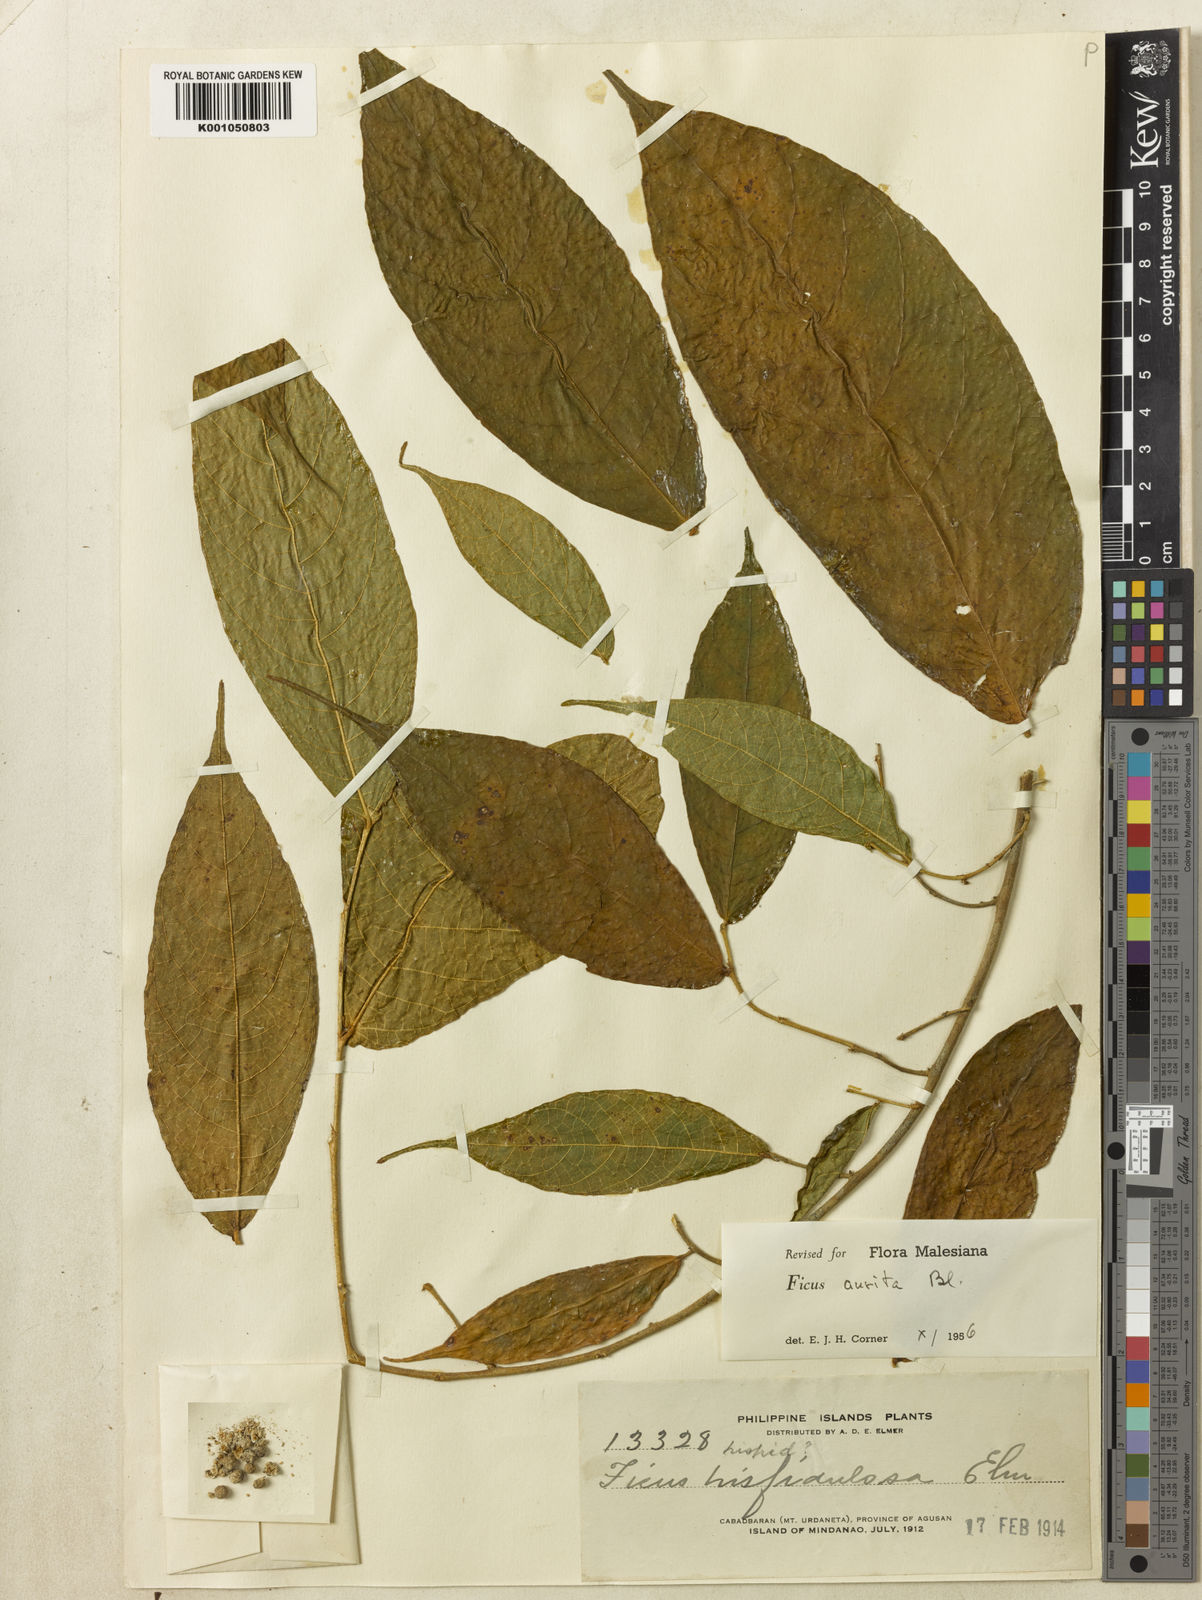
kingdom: Plantae
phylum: Tracheophyta
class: Magnoliopsida
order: Rosales
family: Moraceae
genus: Ficus
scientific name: Ficus aurita
